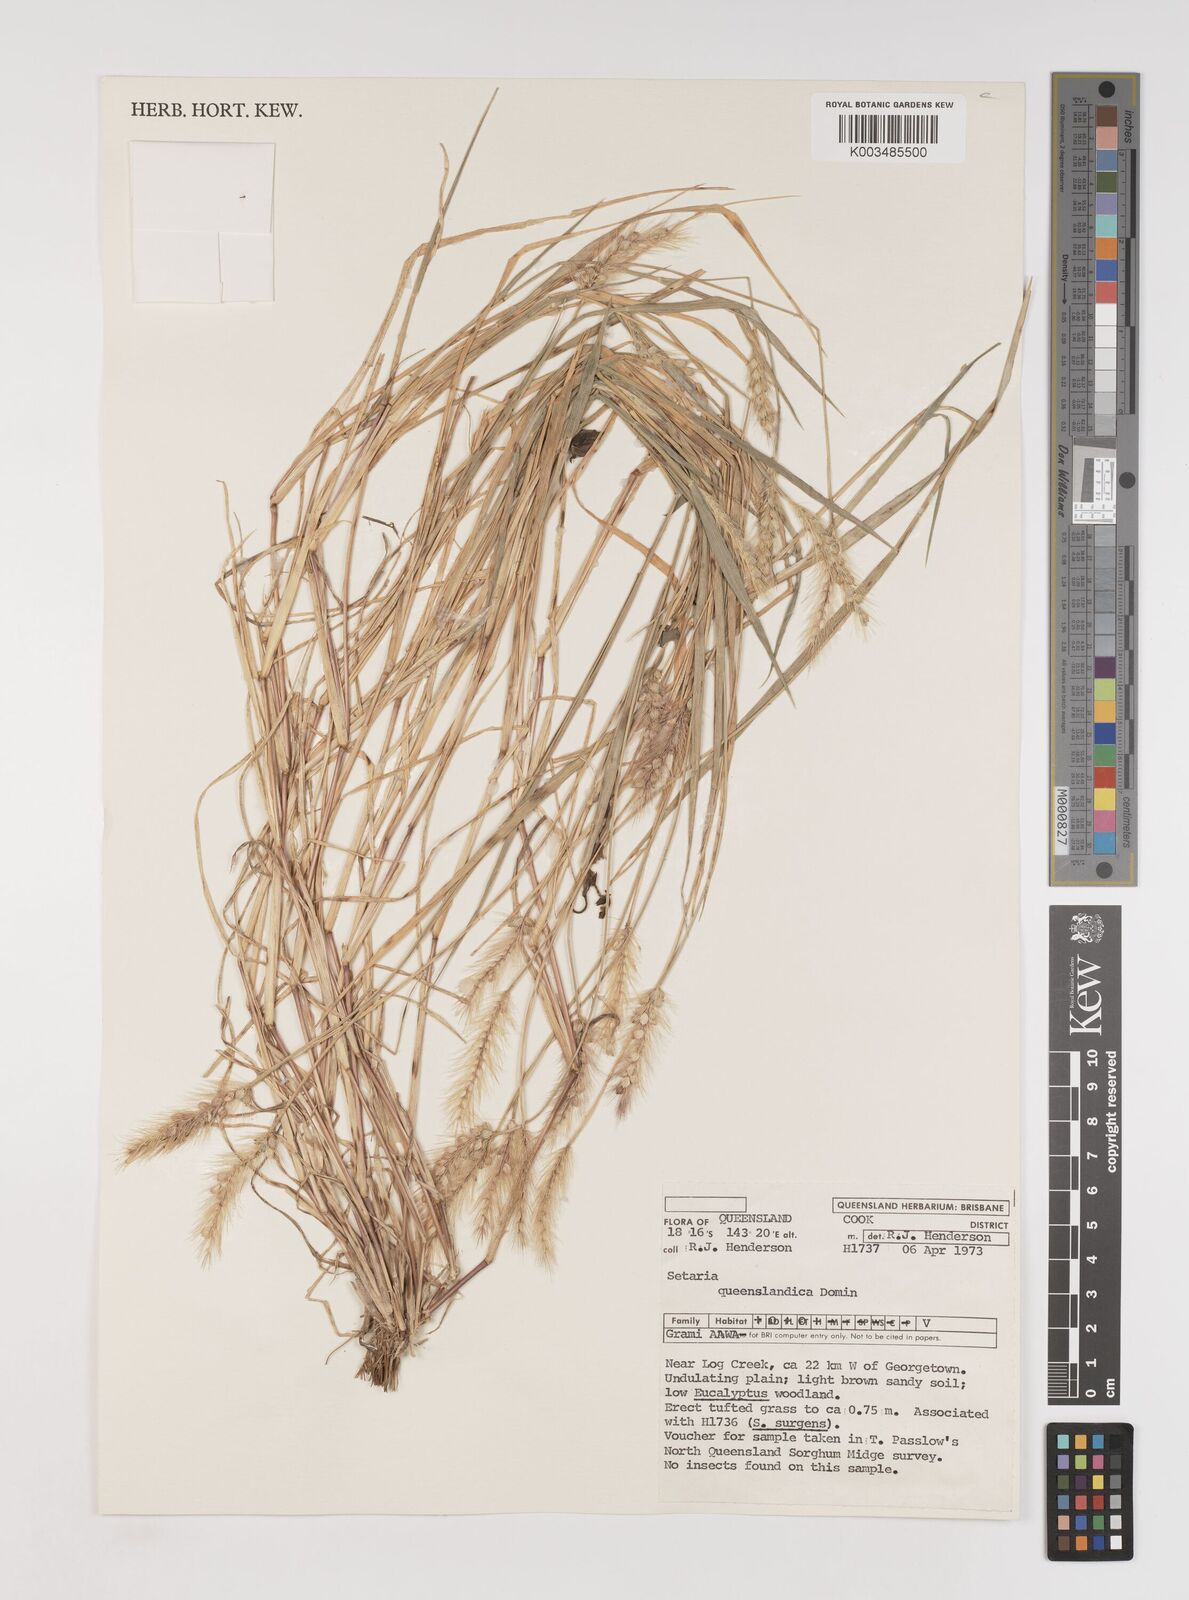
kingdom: Plantae
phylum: Tracheophyta
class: Liliopsida
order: Poales
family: Poaceae
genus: Setaria
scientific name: Setaria queenslandica
